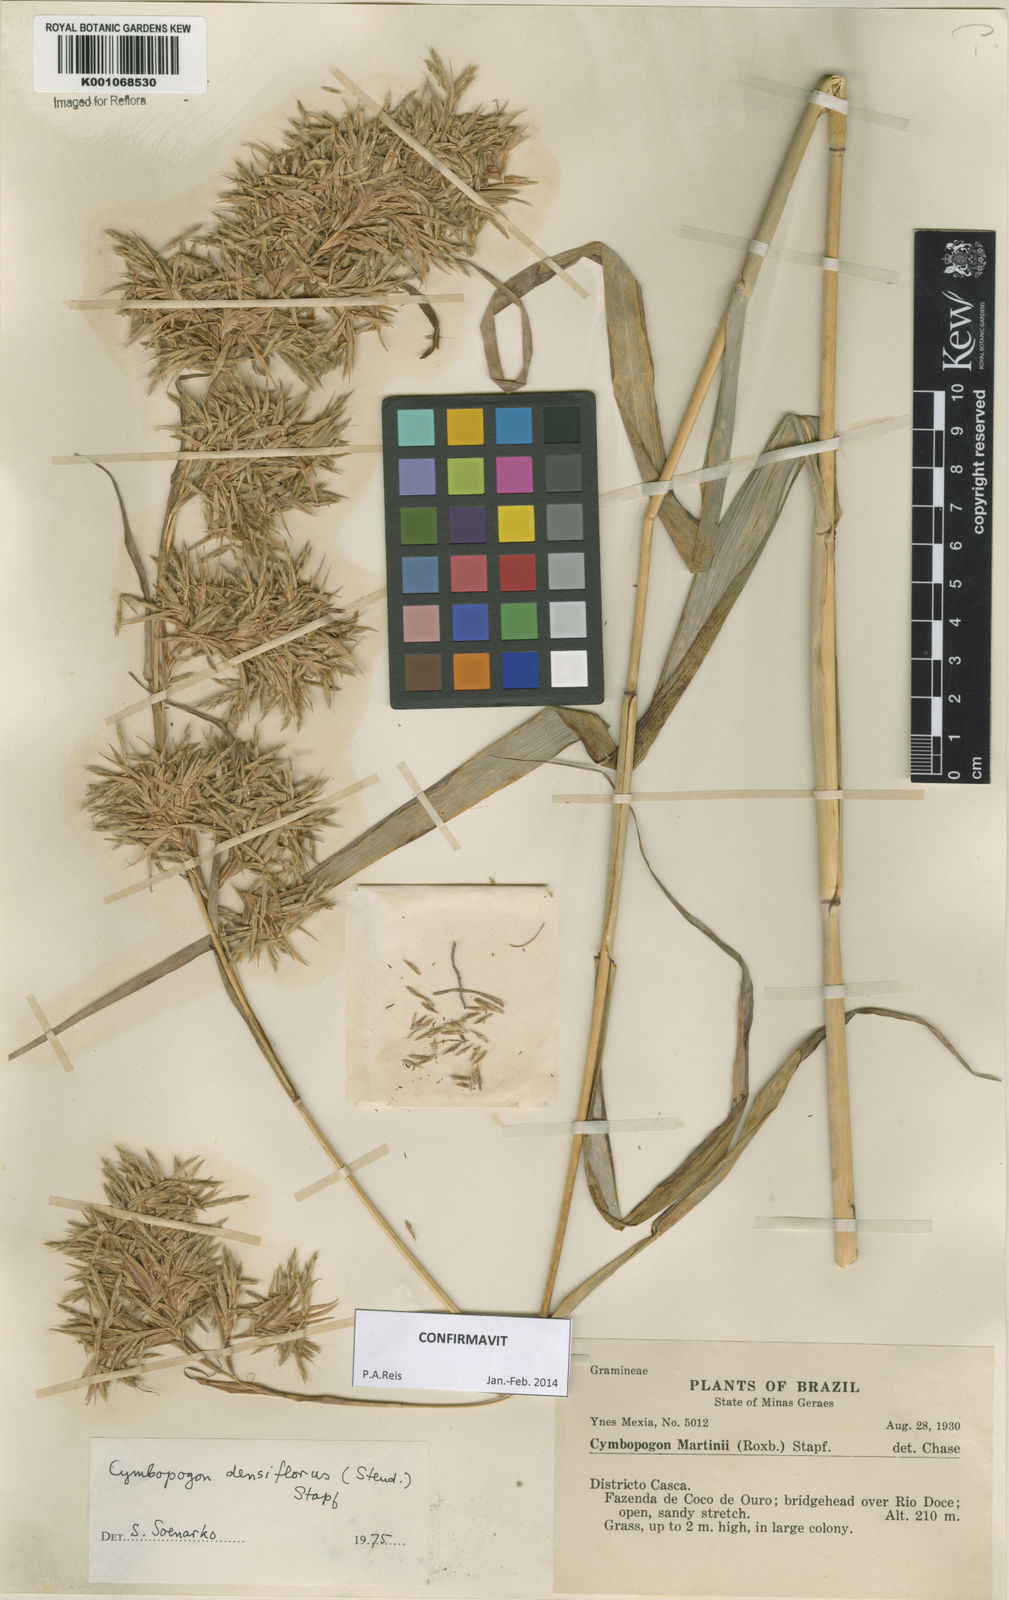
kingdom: Plantae
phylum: Tracheophyta
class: Liliopsida
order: Poales
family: Poaceae
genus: Cymbopogon
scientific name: Cymbopogon densiflorus
